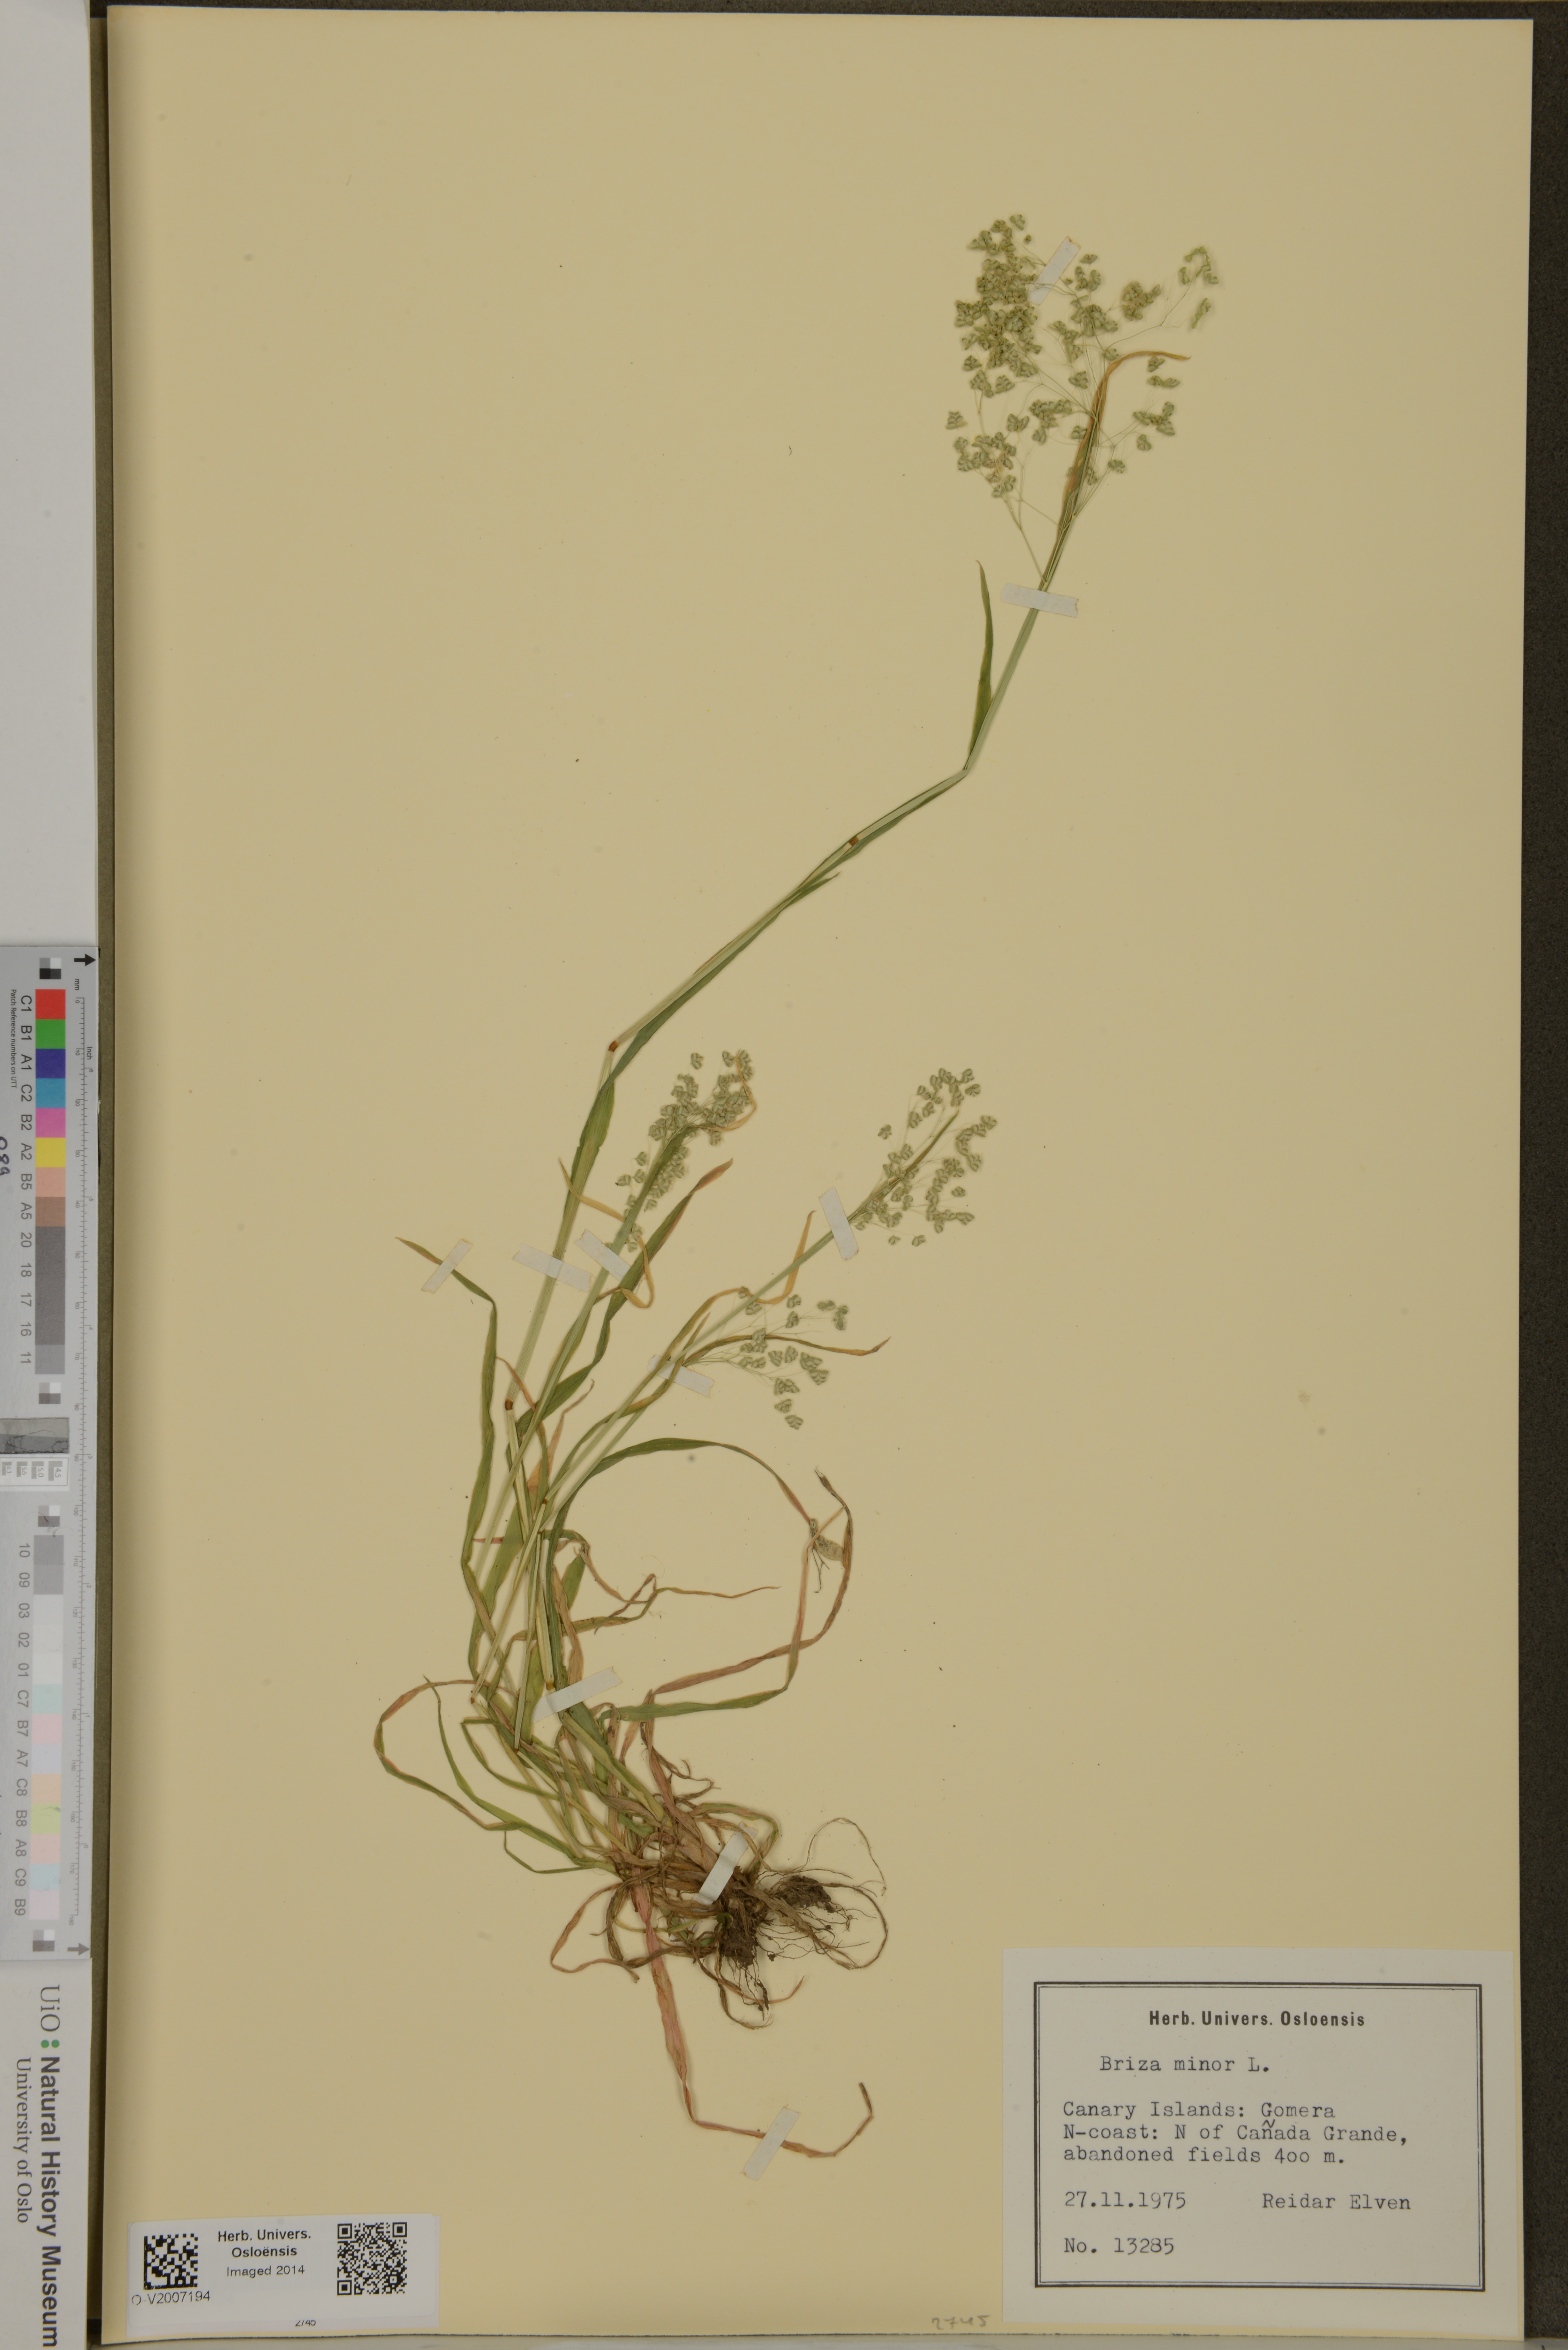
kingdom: Plantae
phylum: Tracheophyta
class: Liliopsida
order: Poales
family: Poaceae
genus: Briza
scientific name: Briza minor
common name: Lesser quaking-grass
